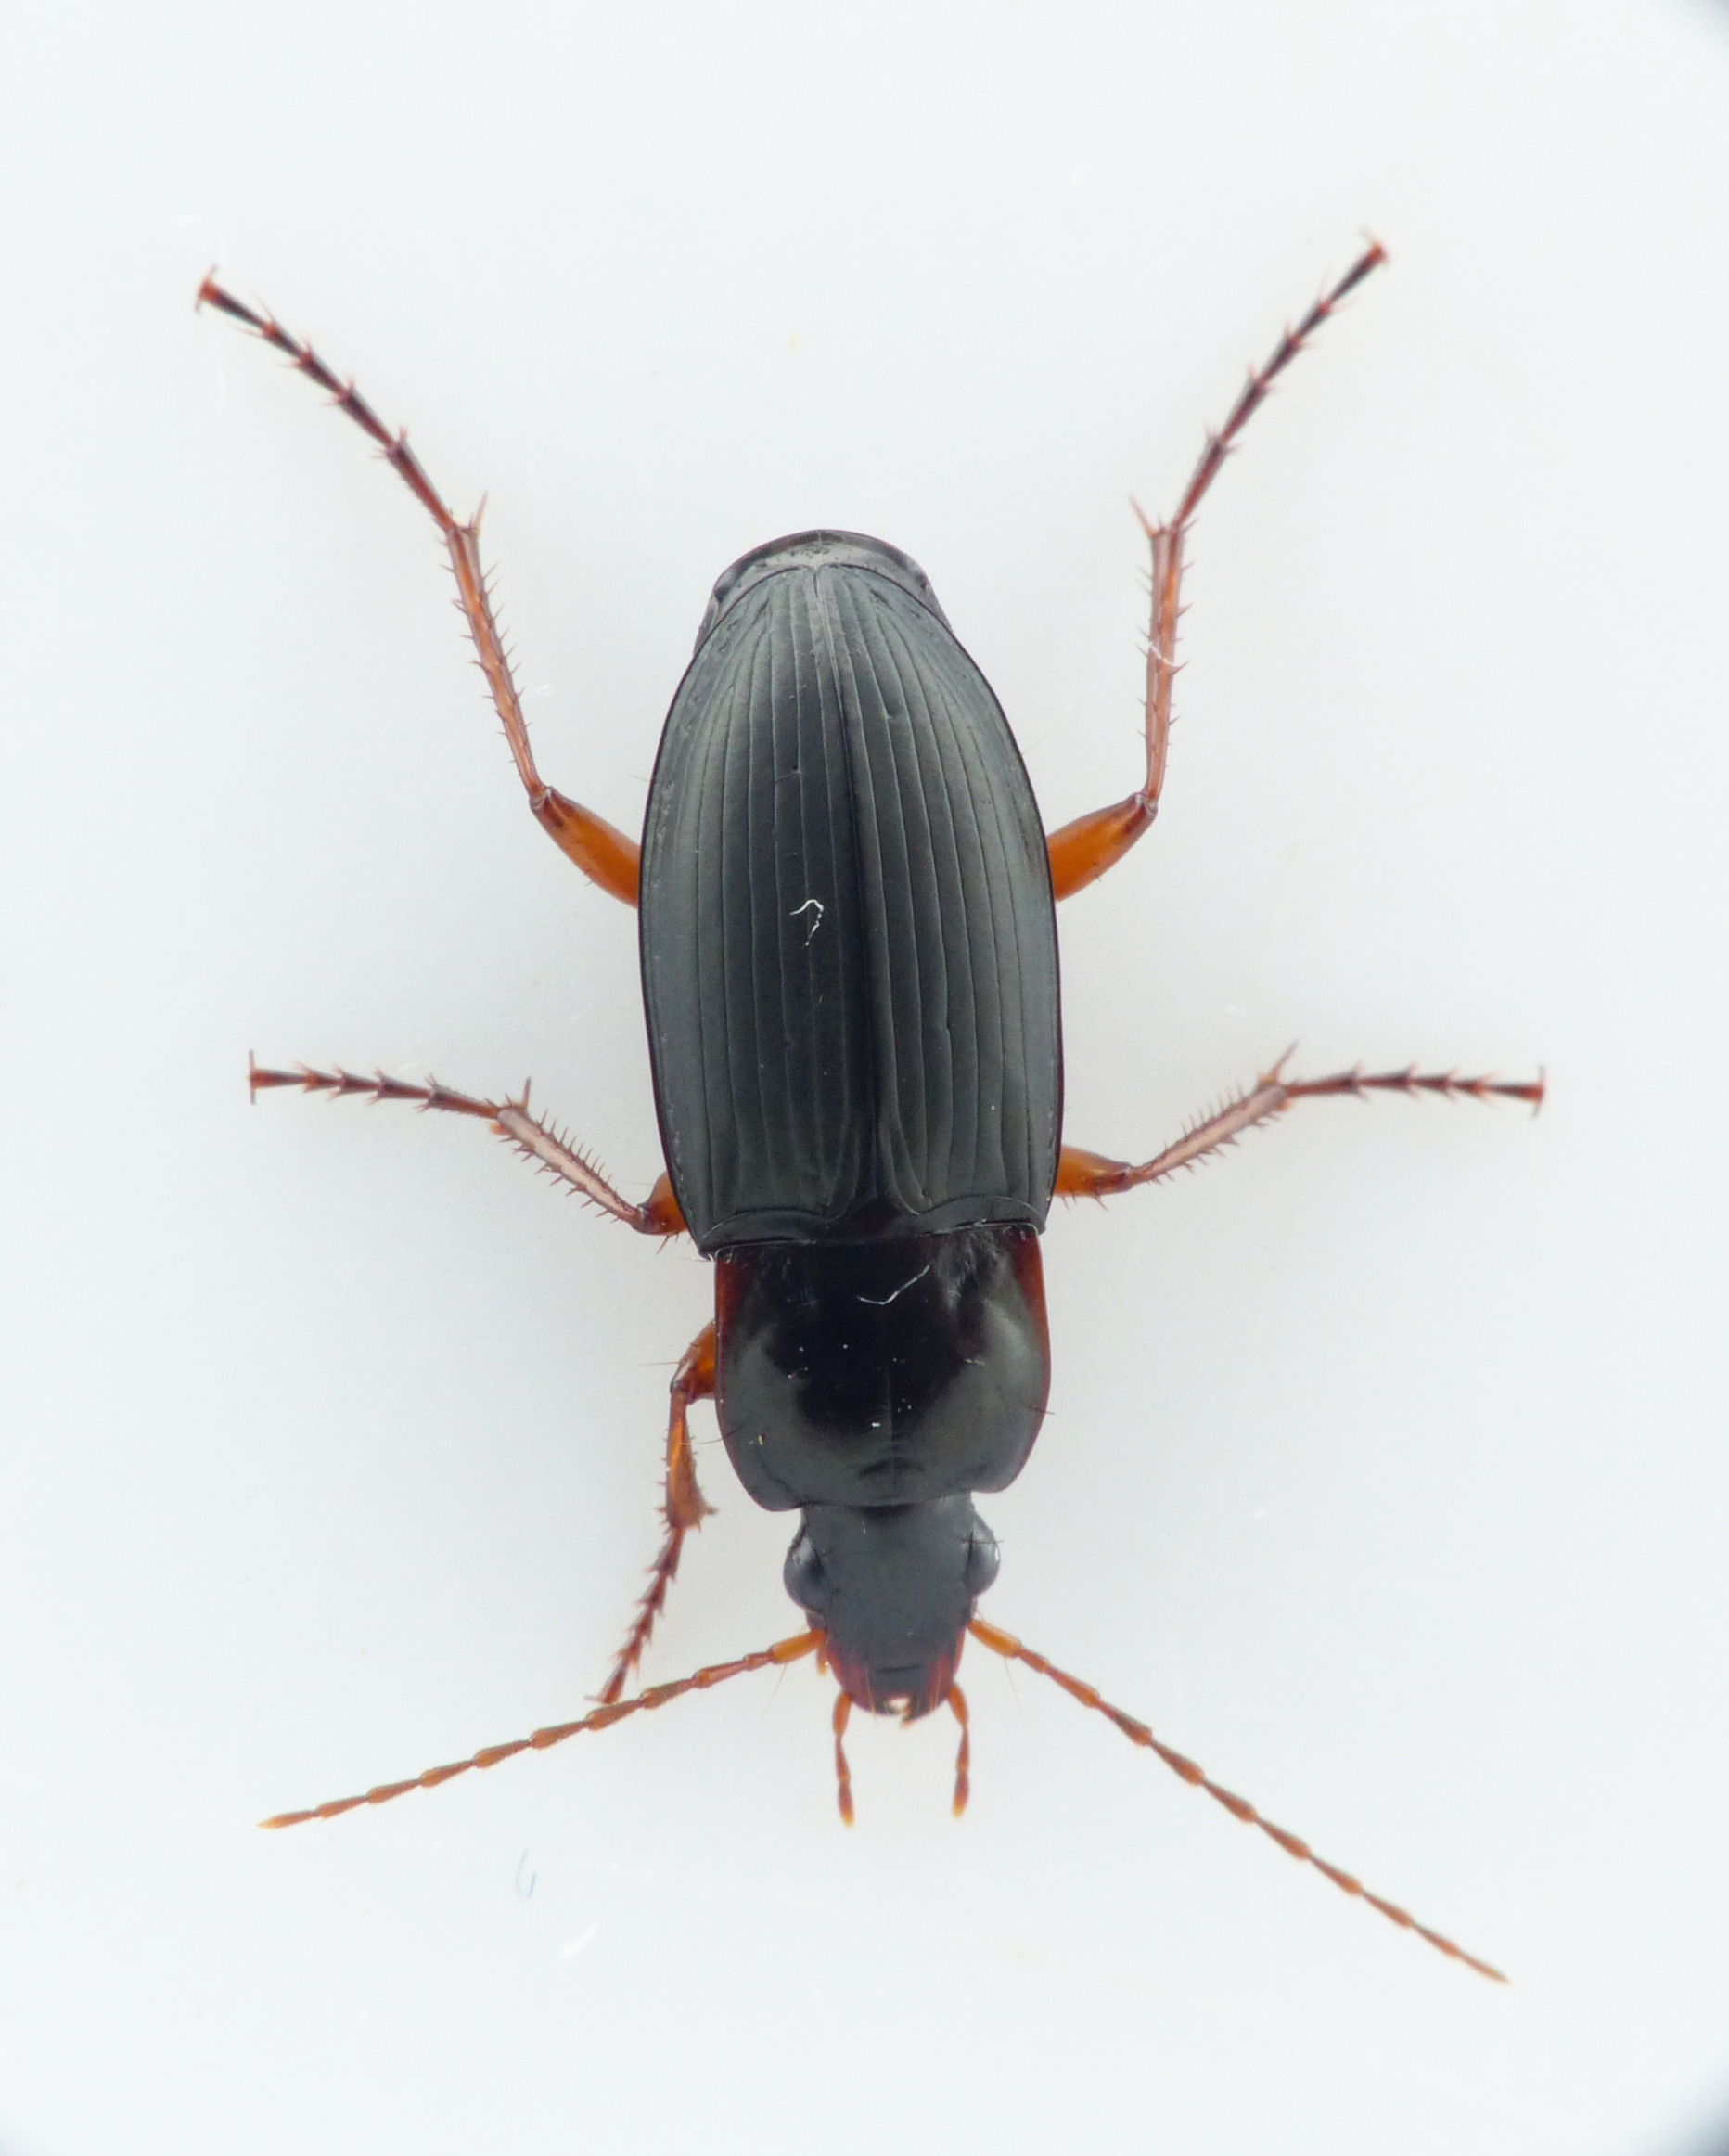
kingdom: Animalia
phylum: Arthropoda
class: Insecta
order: Coleoptera
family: Carabidae
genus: Calathus
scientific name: Calathus erratus
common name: Smal torpedoløber
